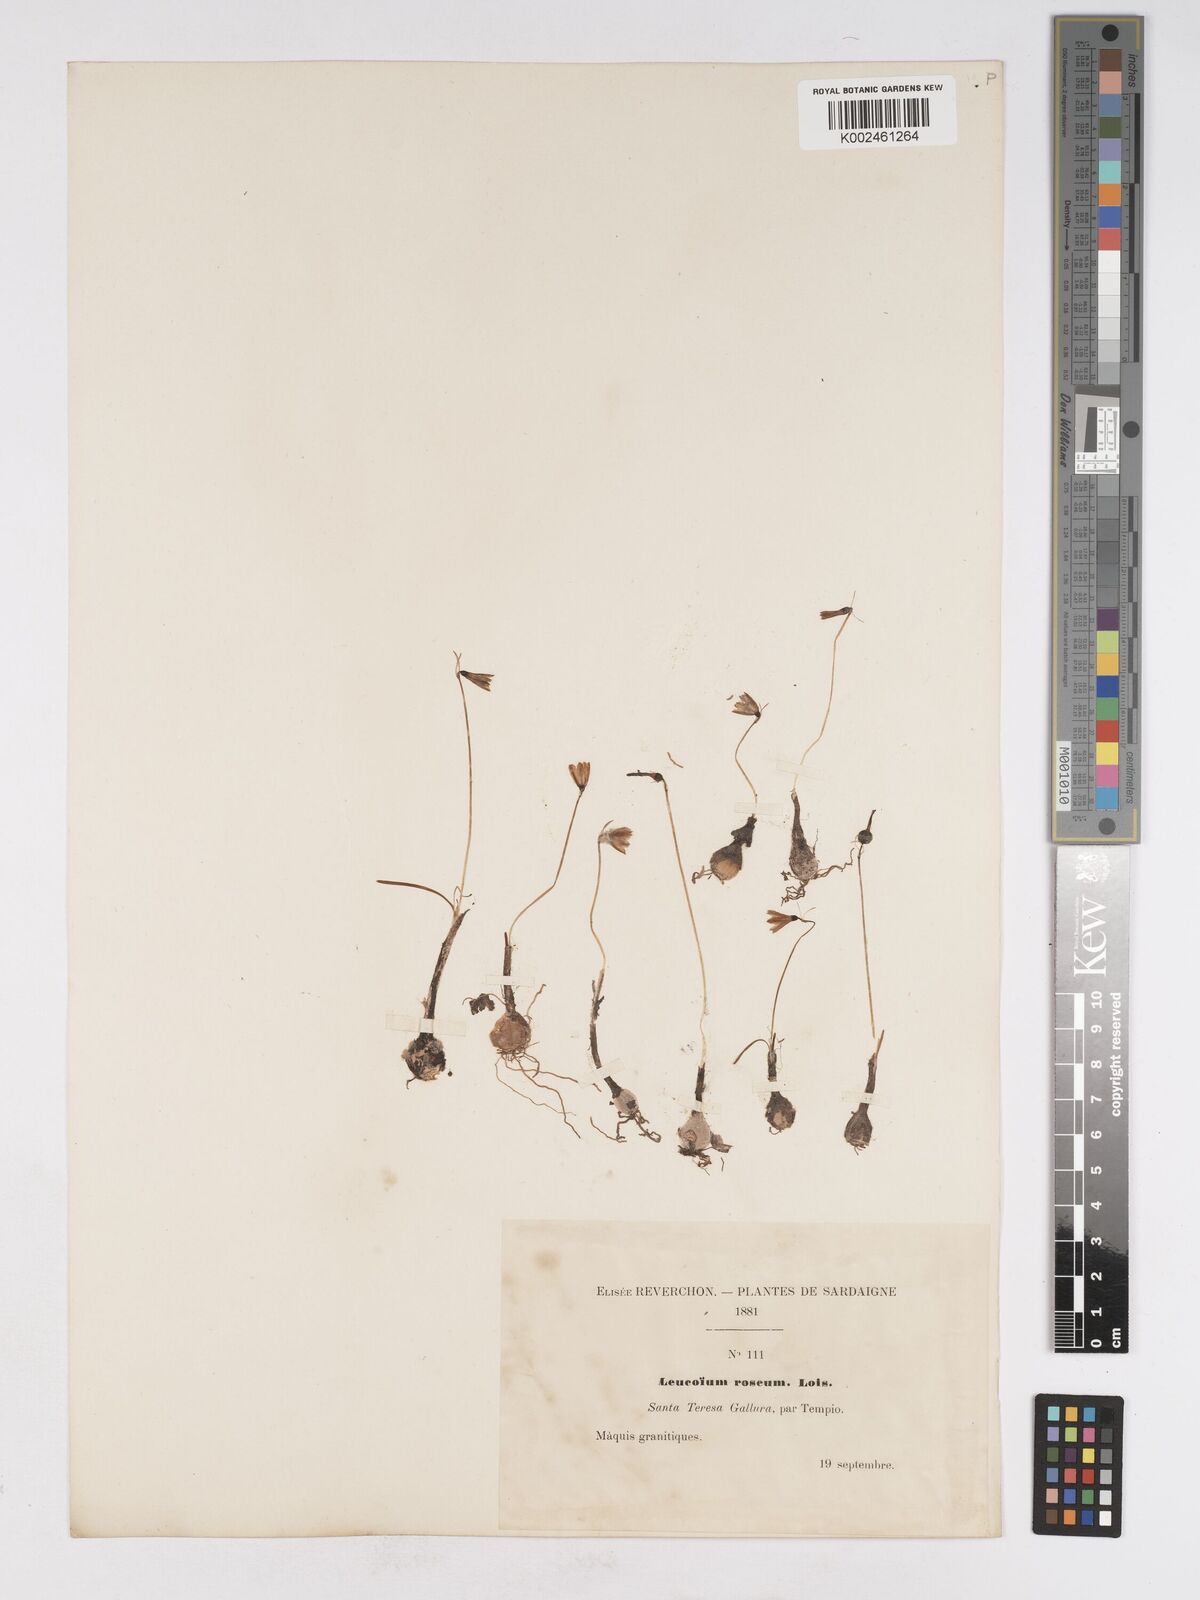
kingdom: Plantae
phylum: Tracheophyta
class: Liliopsida
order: Asparagales
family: Amaryllidaceae
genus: Acis
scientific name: Acis rosea
